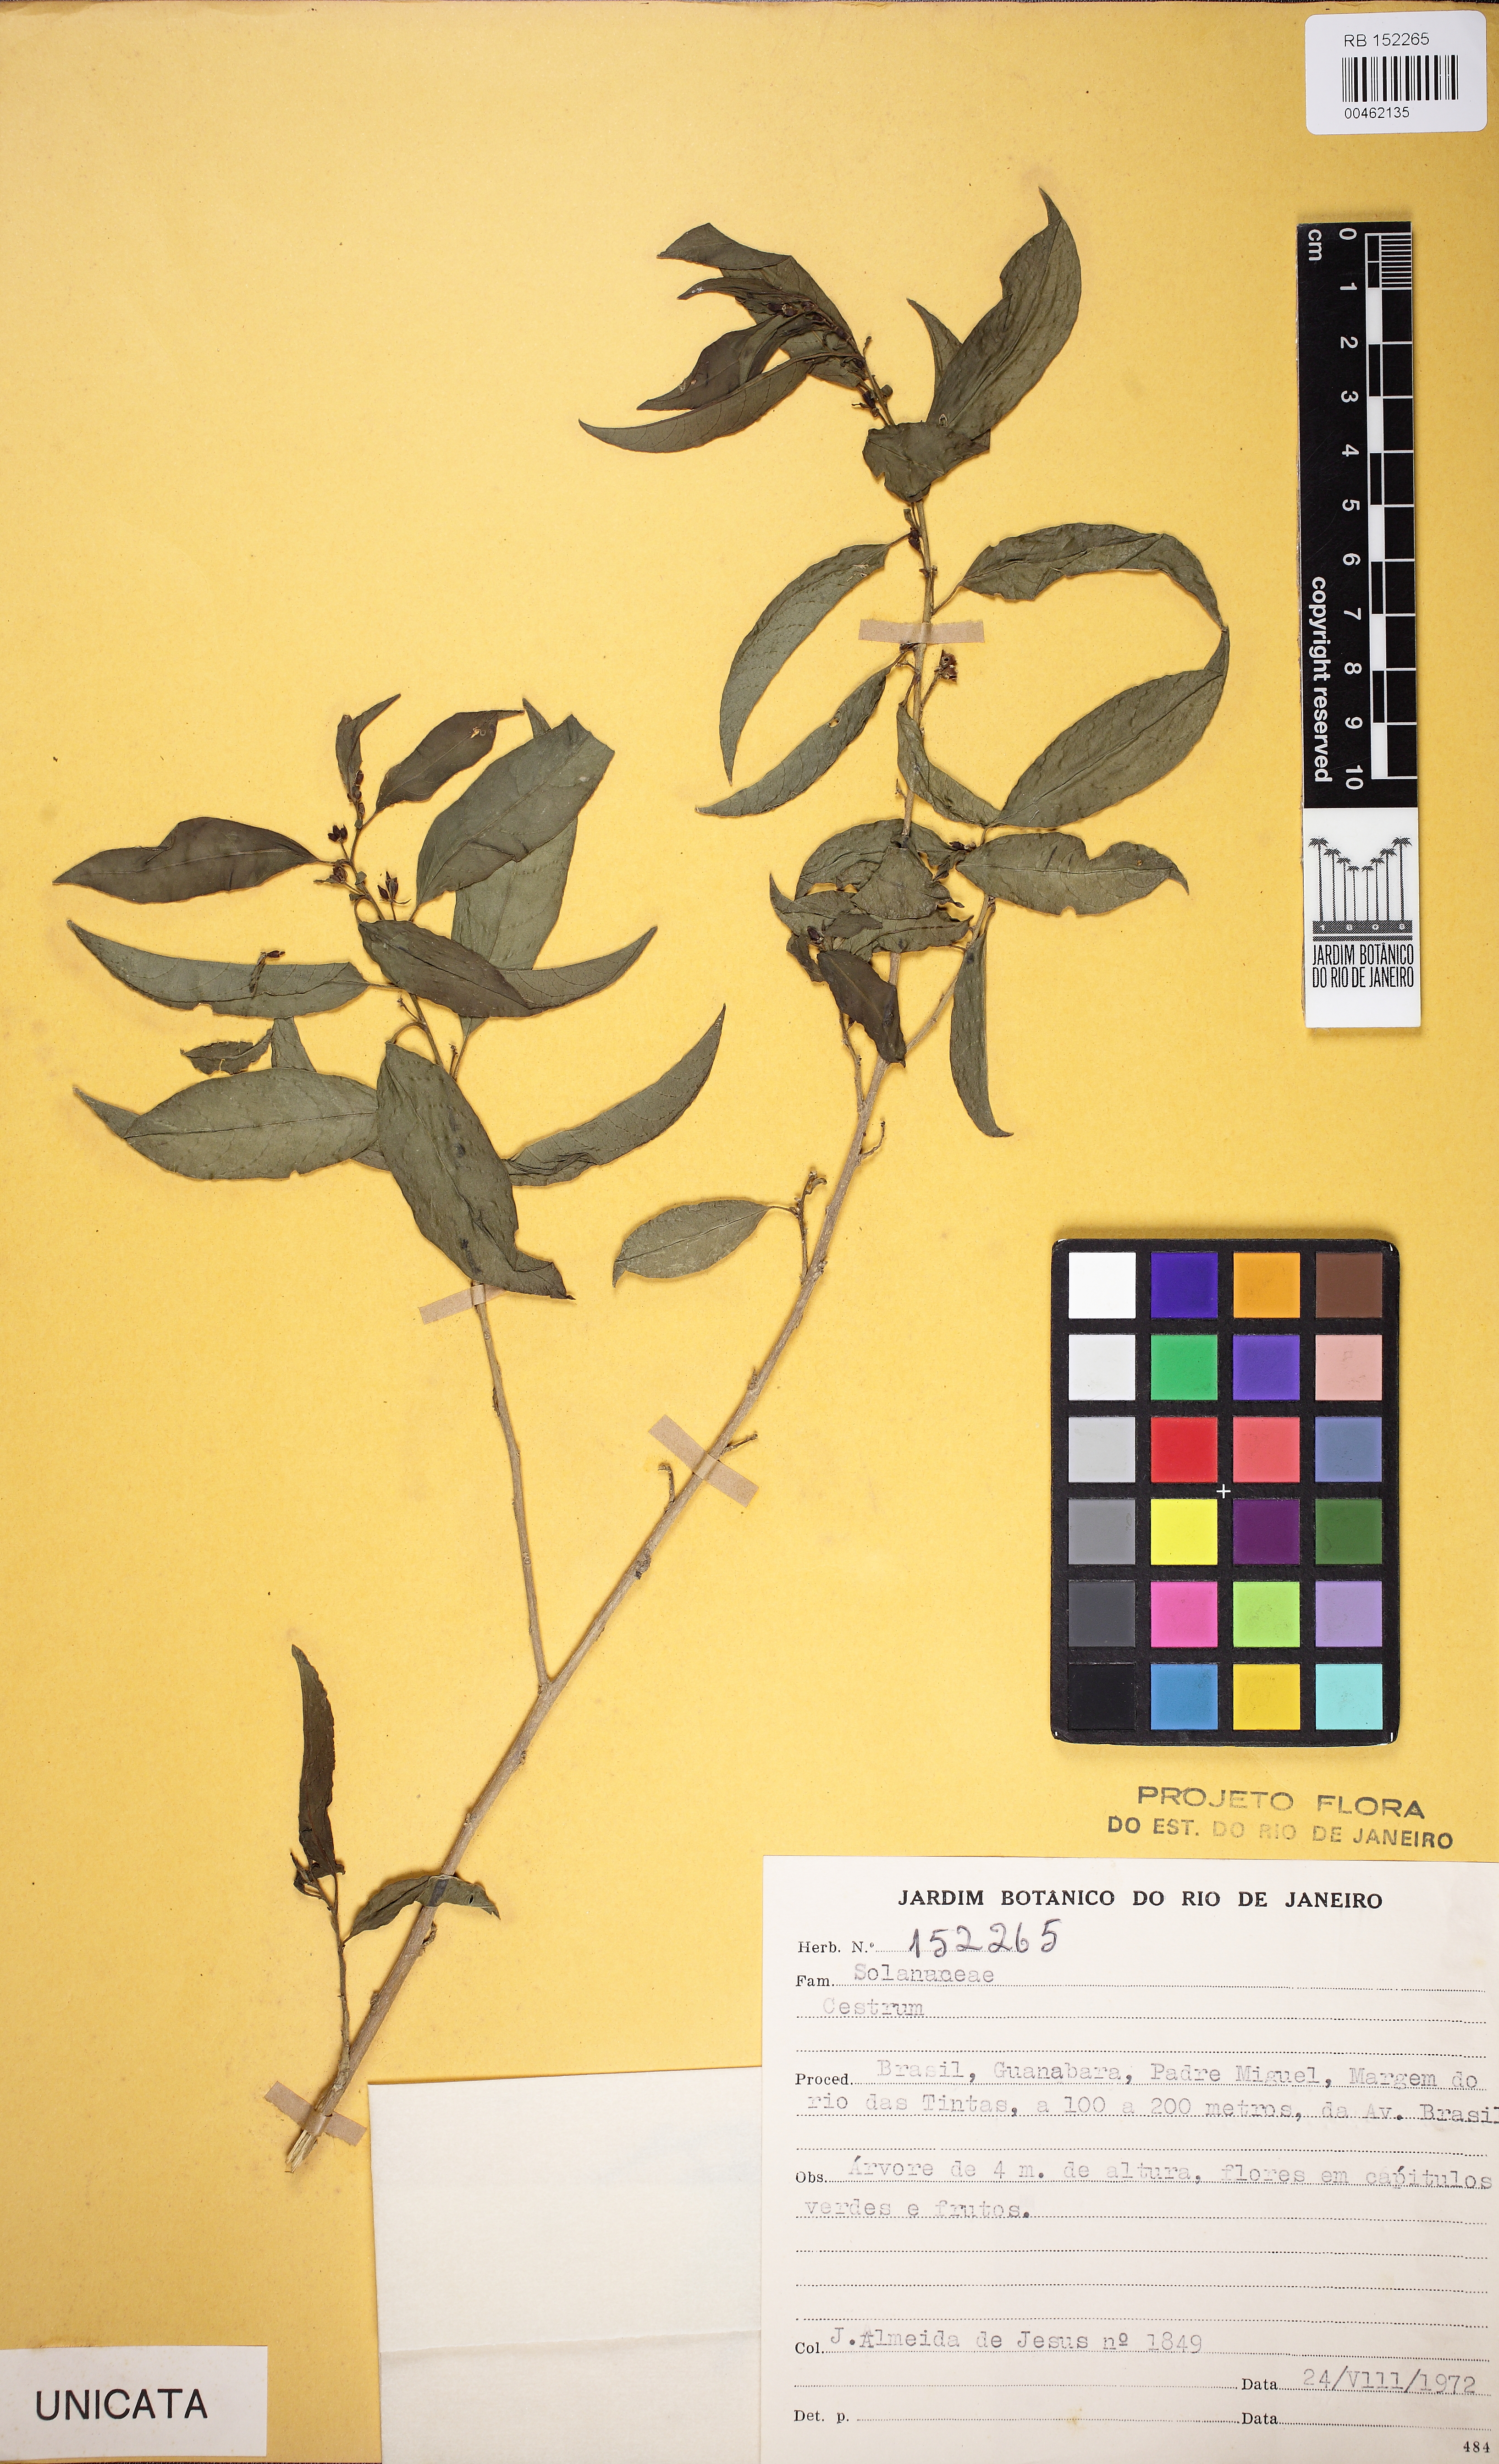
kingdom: Plantae
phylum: Tracheophyta
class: Magnoliopsida
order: Solanales
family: Solanaceae
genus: Cestrum
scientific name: Cestrum
